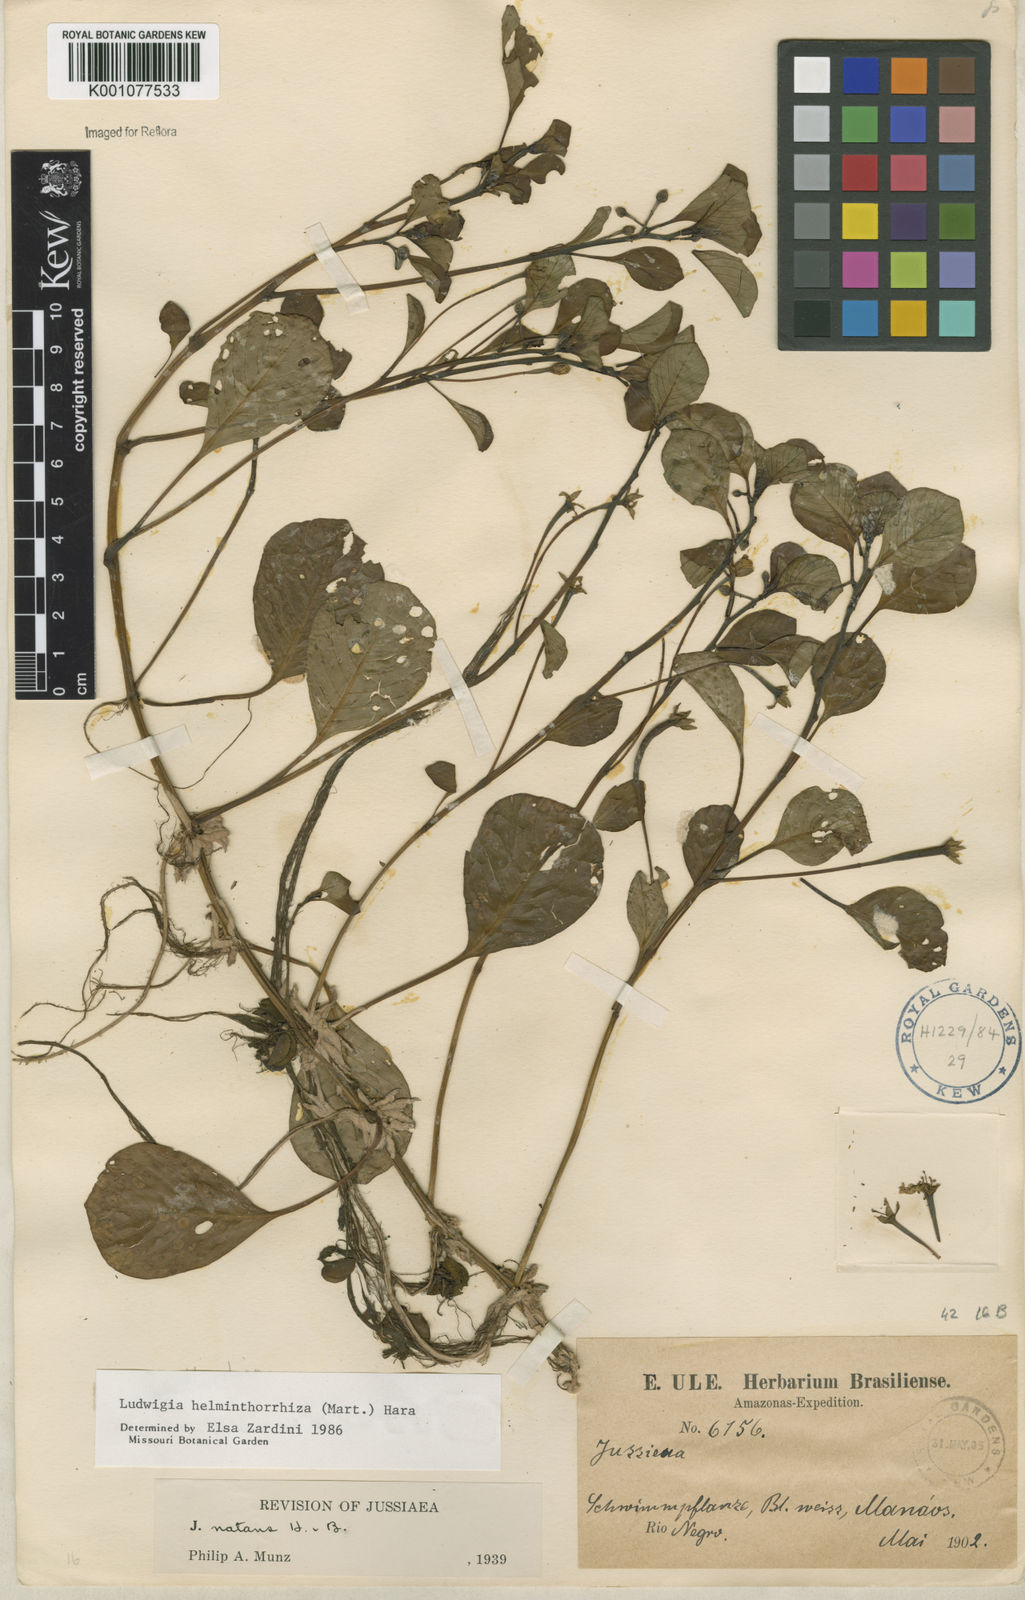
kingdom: Plantae
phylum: Tracheophyta
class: Magnoliopsida
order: Myrtales
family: Onagraceae
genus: Ludwigia
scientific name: Ludwigia helminthorrhiza
